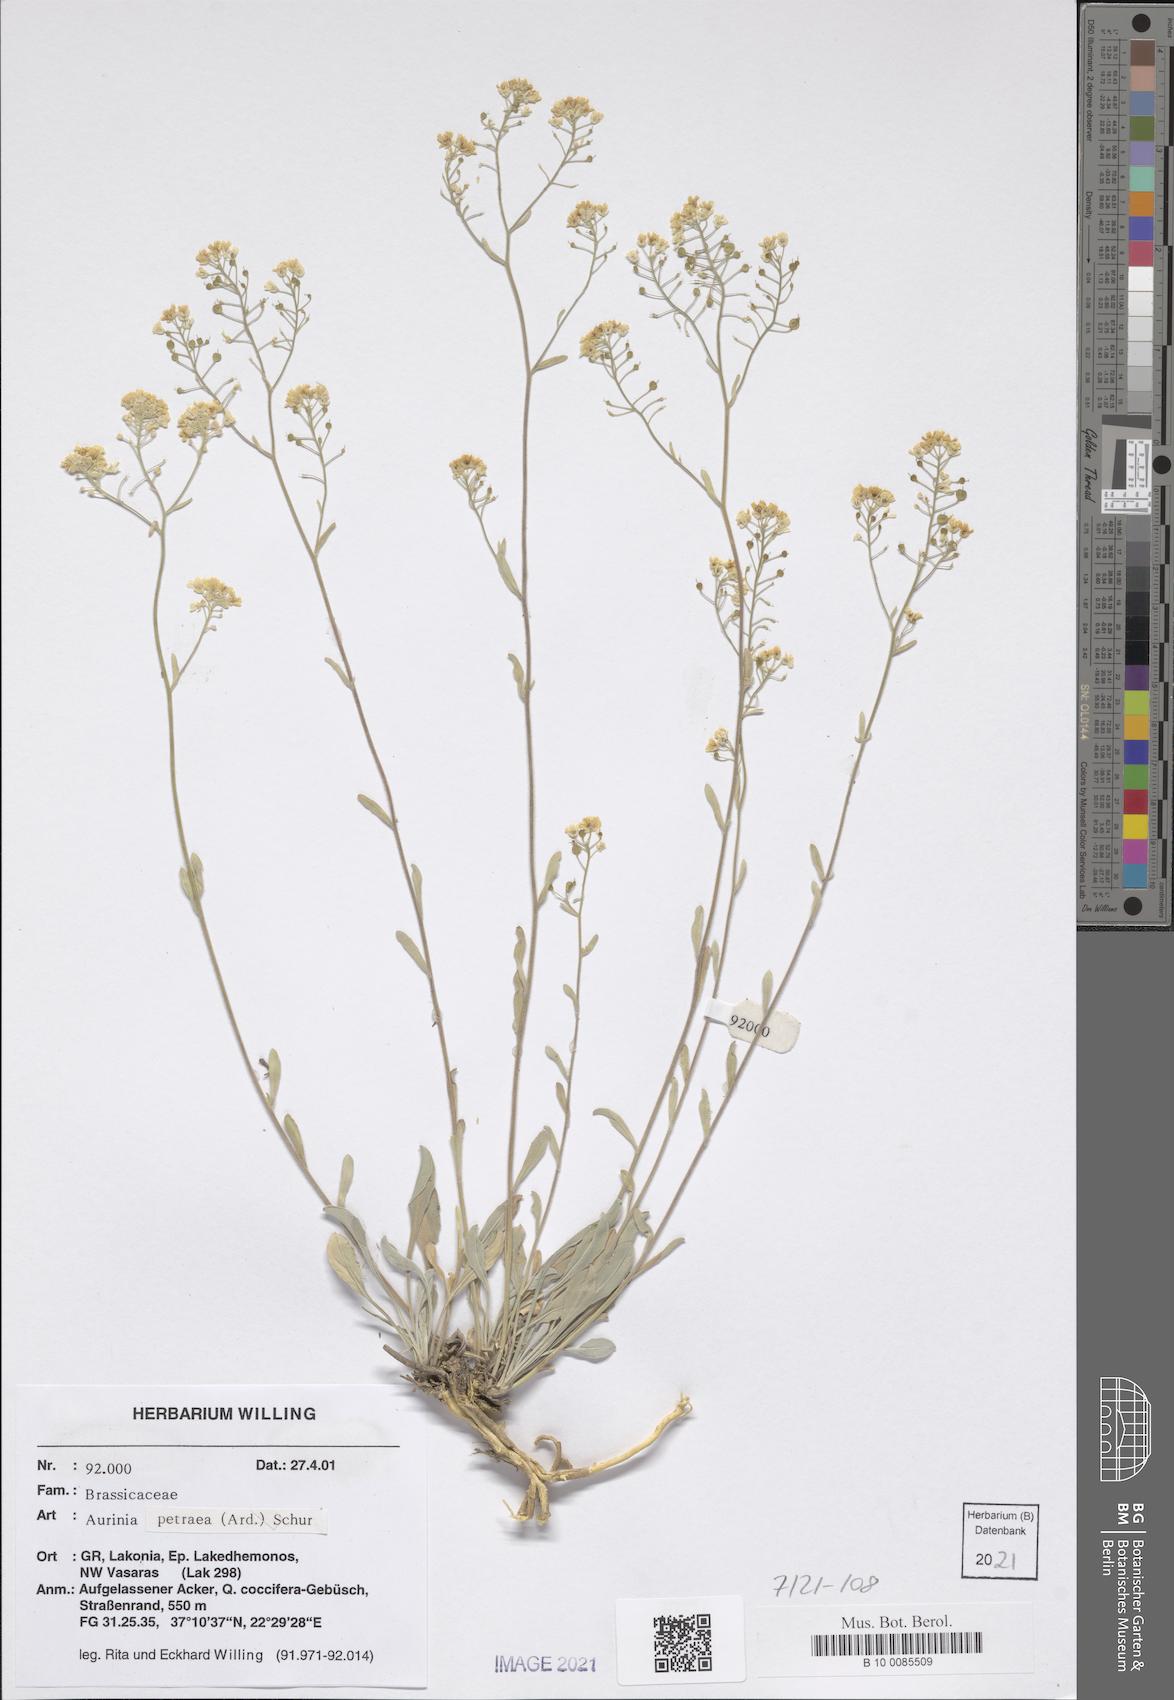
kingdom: Plantae
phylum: Tracheophyta
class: Magnoliopsida
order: Brassicales
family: Brassicaceae
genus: Aurinia
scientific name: Aurinia petraea
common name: Goldentuft
